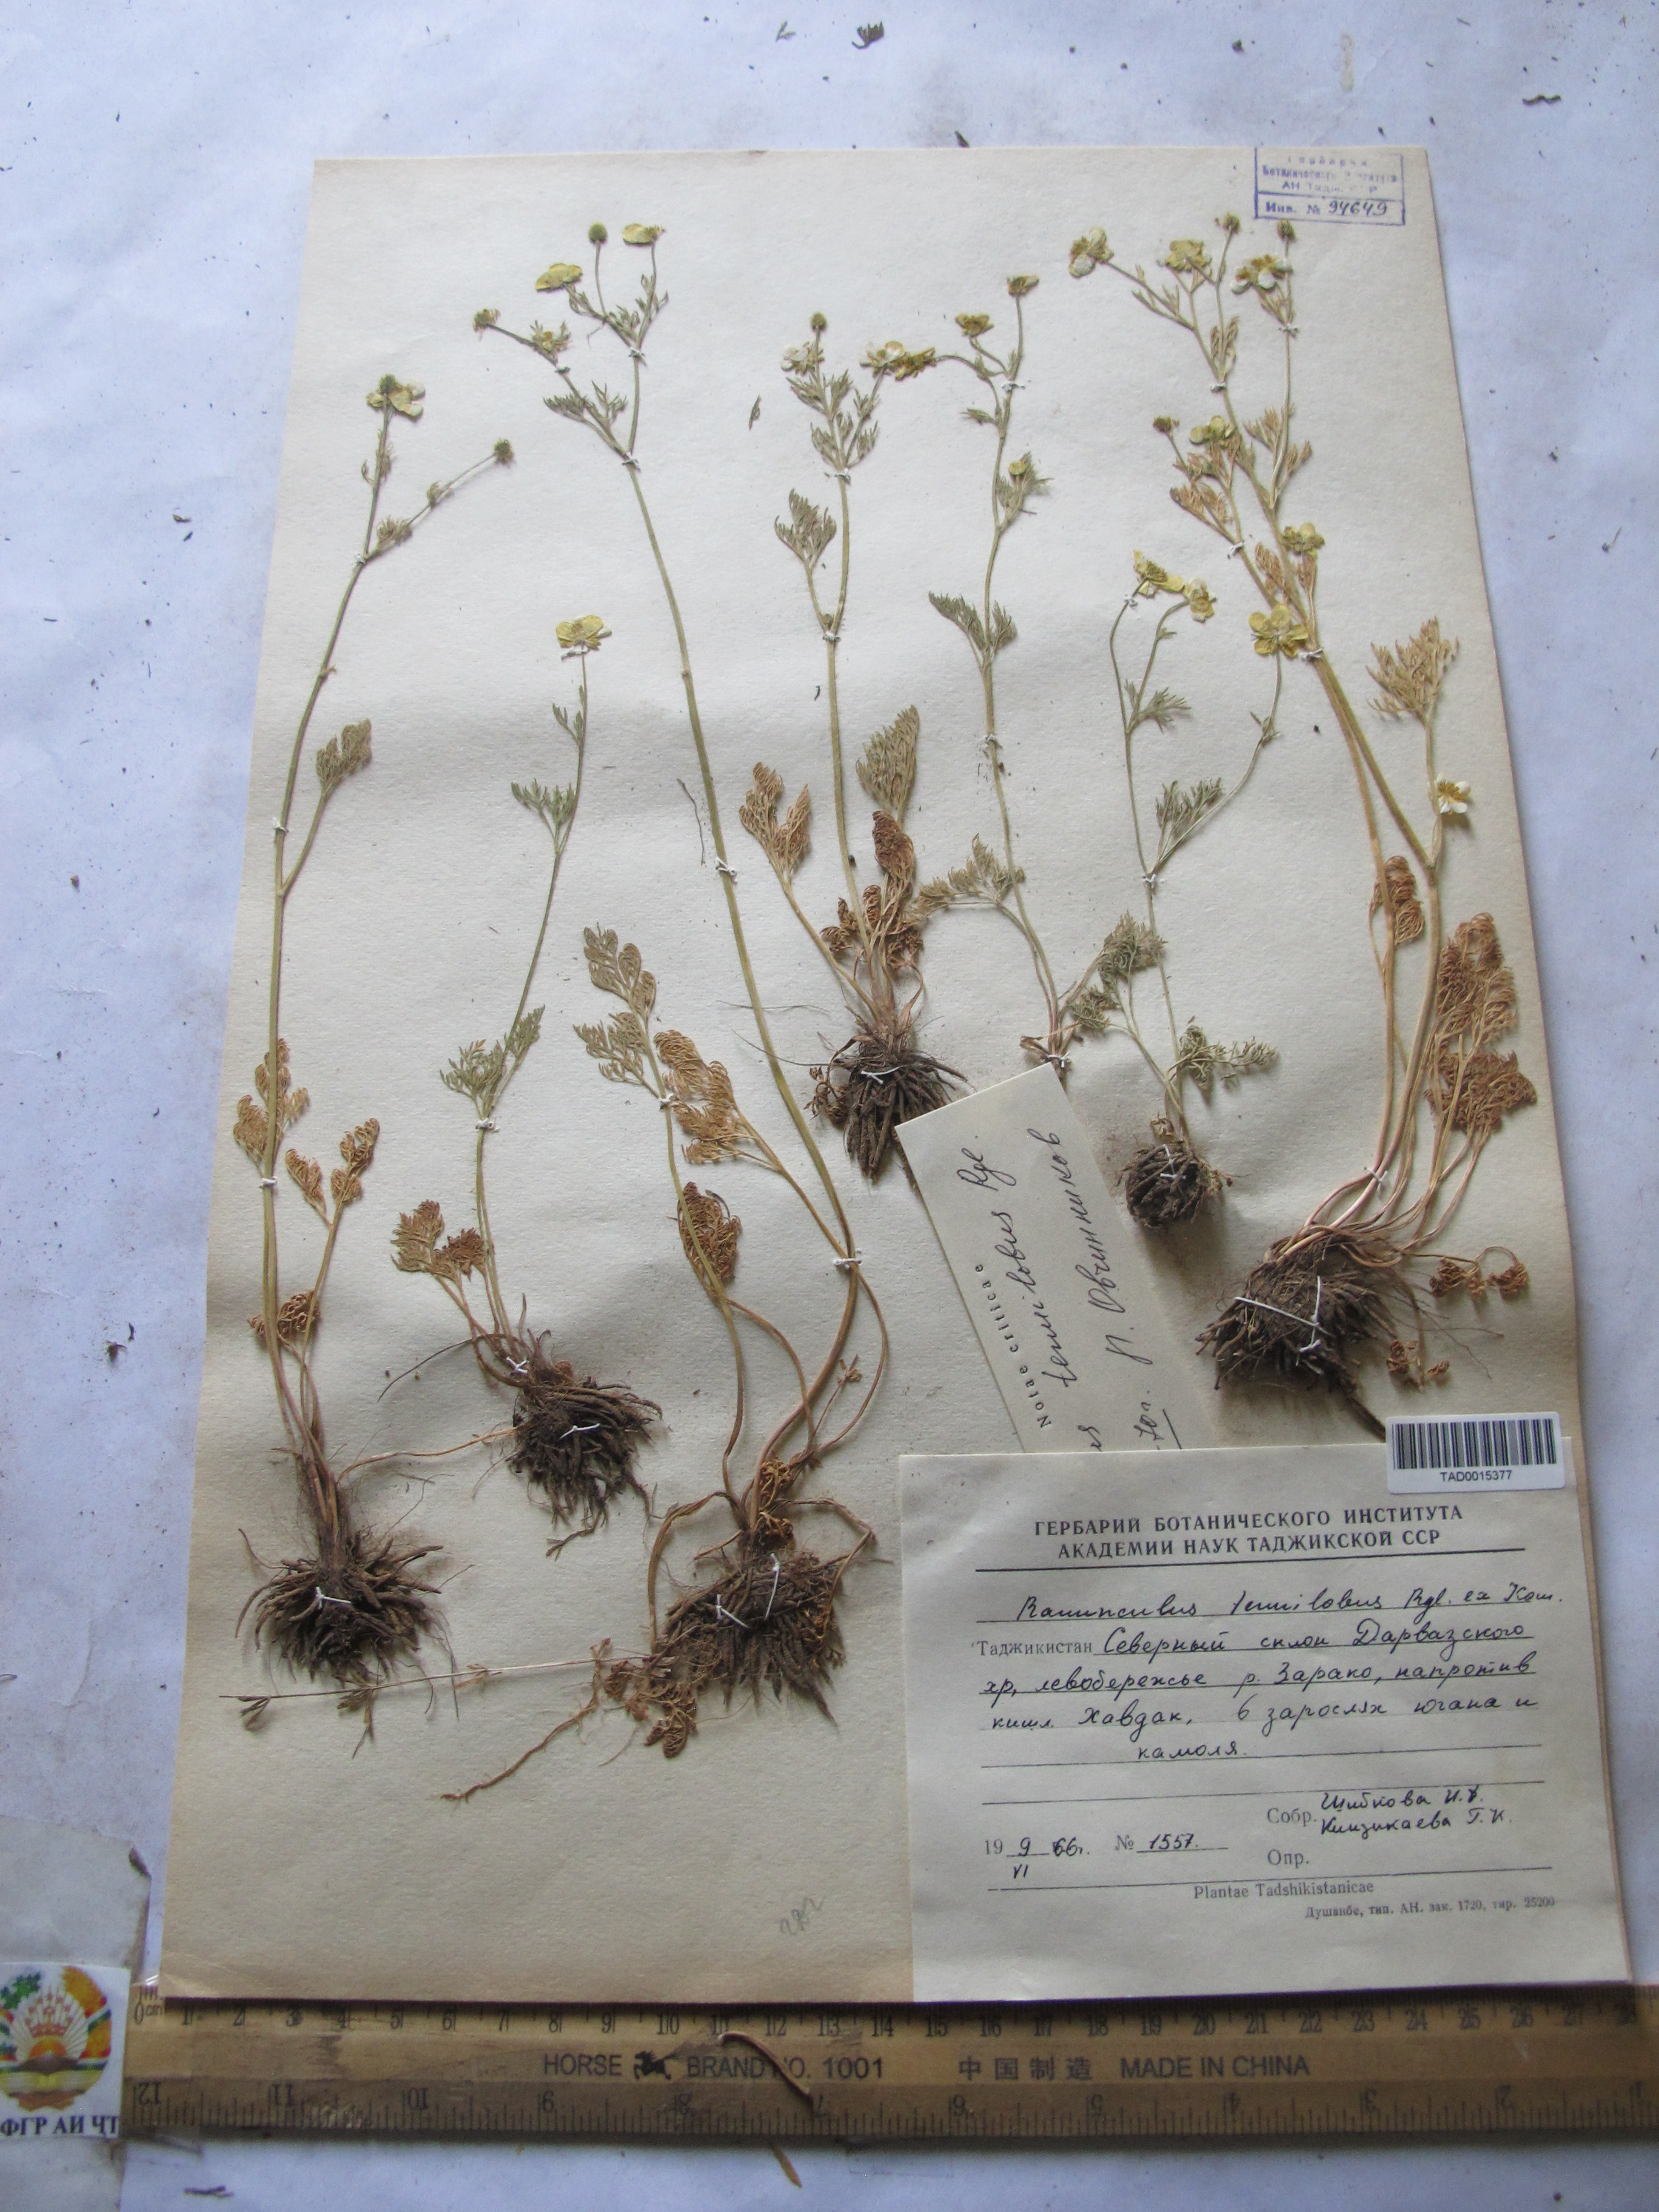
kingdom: Plantae
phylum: Tracheophyta
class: Magnoliopsida
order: Ranunculales
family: Ranunculaceae
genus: Ranunculus
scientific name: Ranunculus tenuilobus
